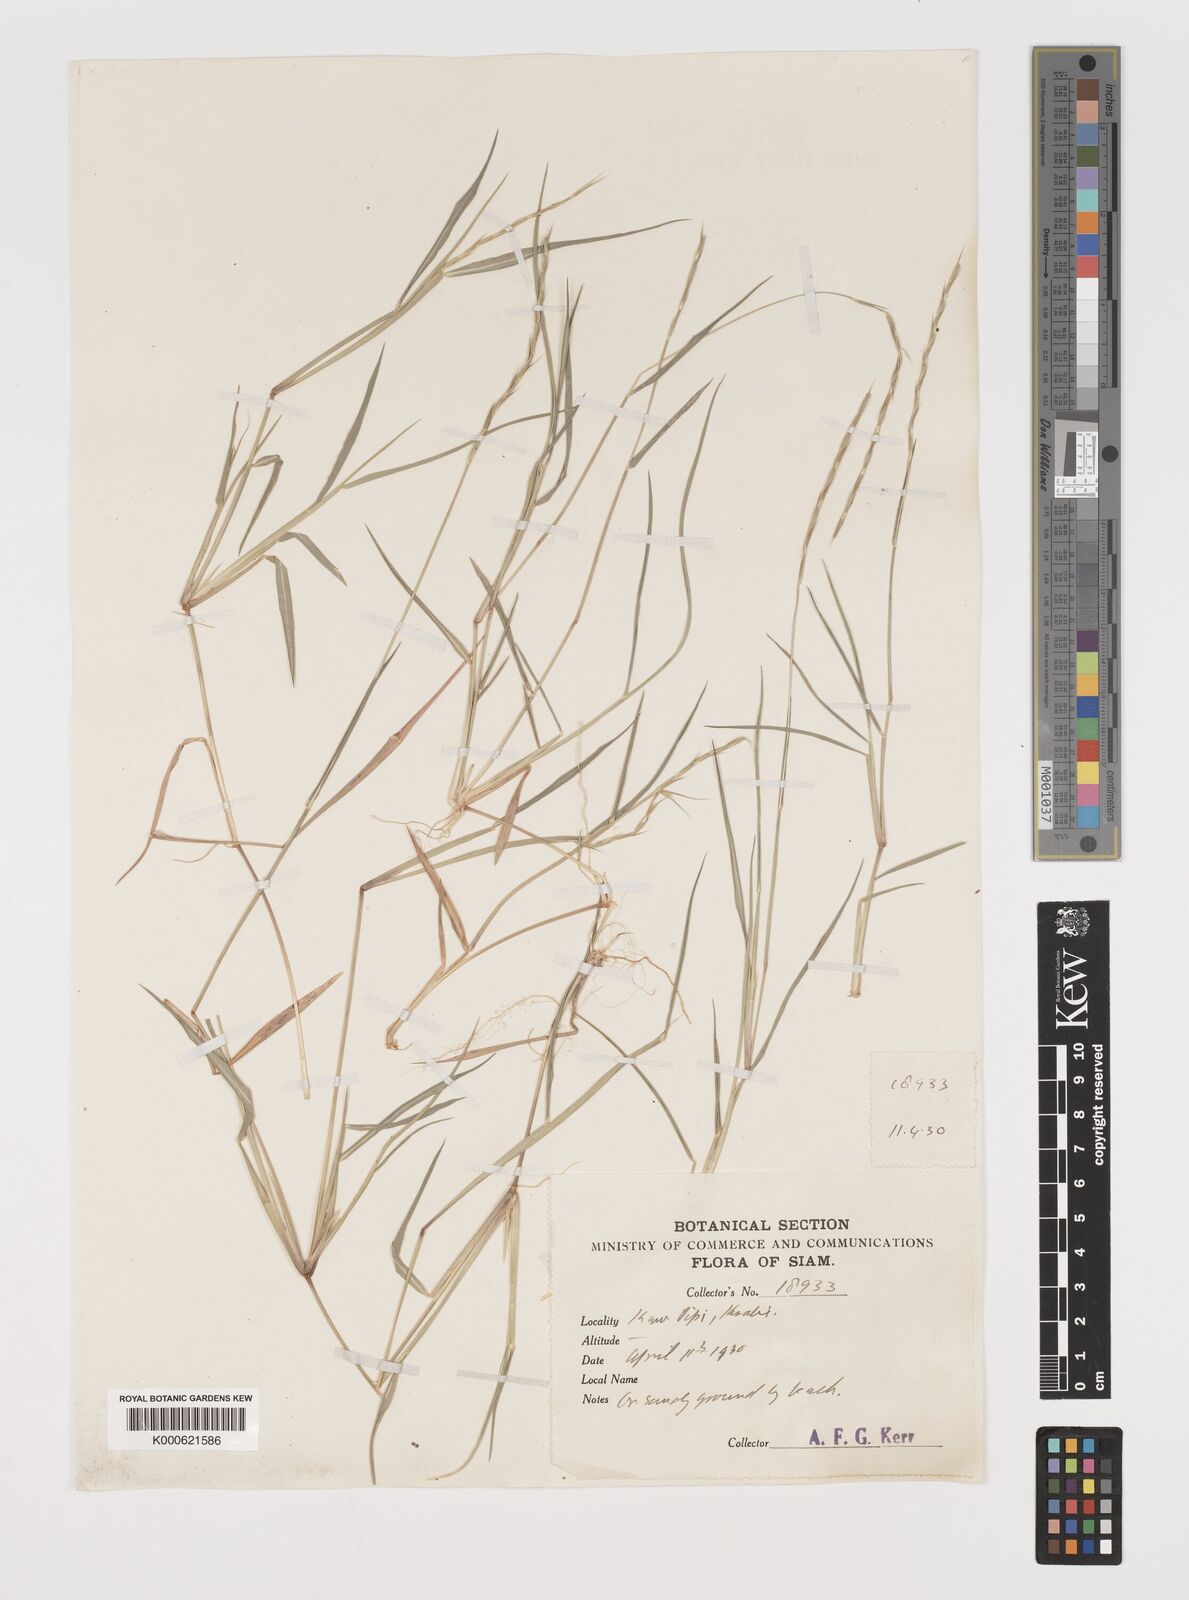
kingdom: Plantae
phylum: Tracheophyta
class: Liliopsida
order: Poales
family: Poaceae
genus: Lepturus
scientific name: Lepturus repens
